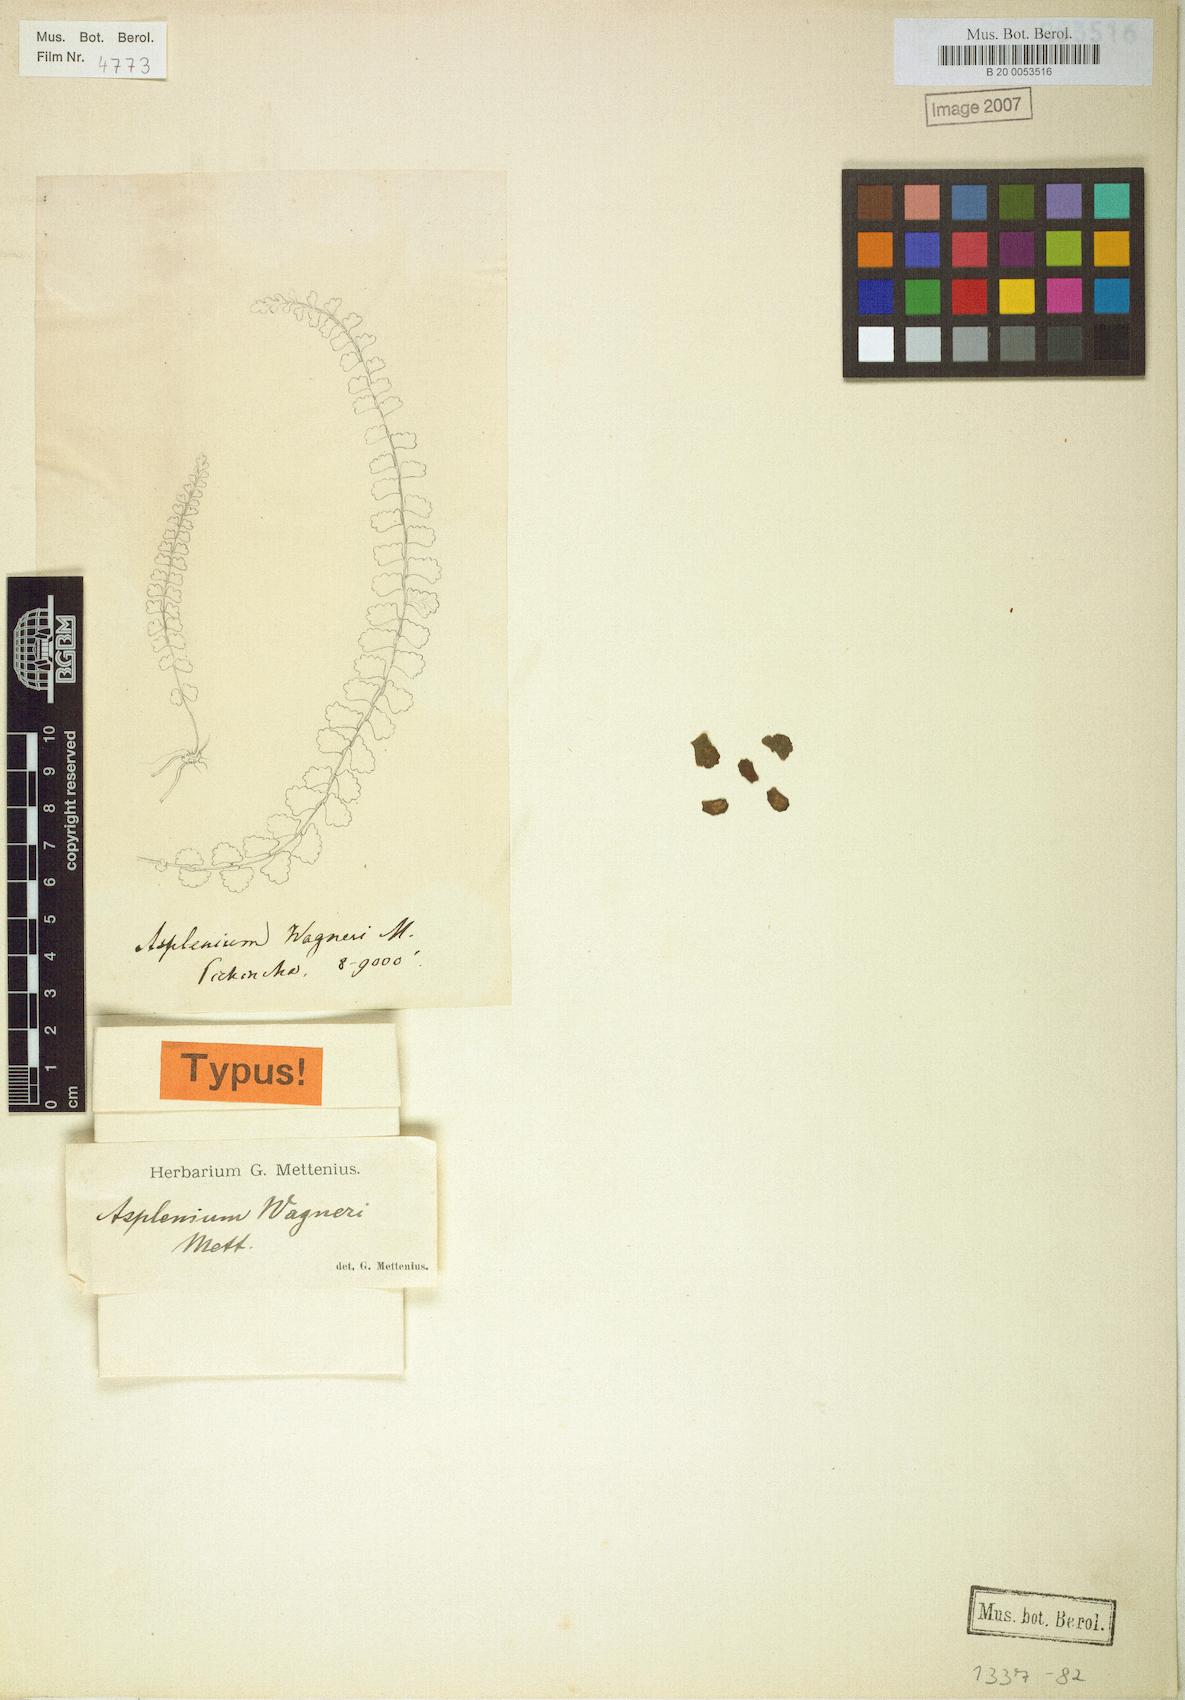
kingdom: Plantae
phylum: Tracheophyta
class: Polypodiopsida
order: Polypodiales
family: Aspleniaceae
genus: Asplenium
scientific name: Asplenium monanthes
